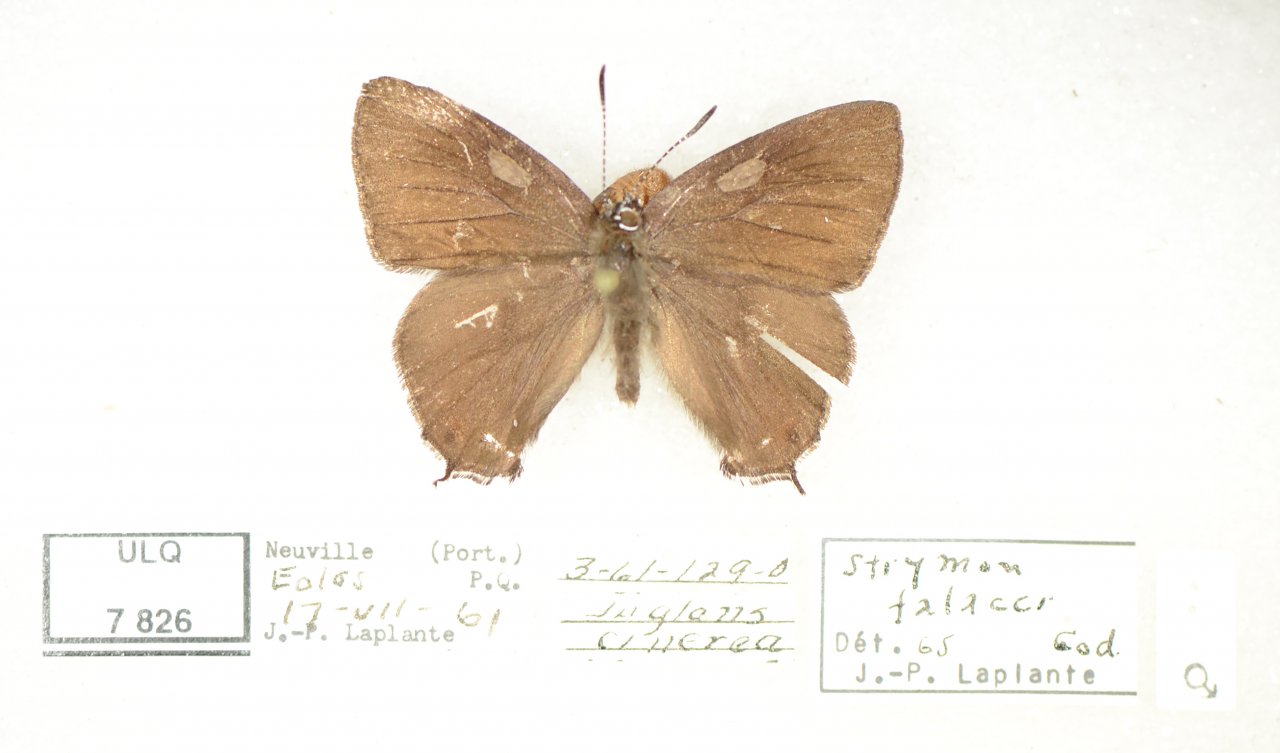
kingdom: Animalia
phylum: Arthropoda
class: Insecta
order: Lepidoptera
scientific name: Lepidoptera
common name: Butterflies
